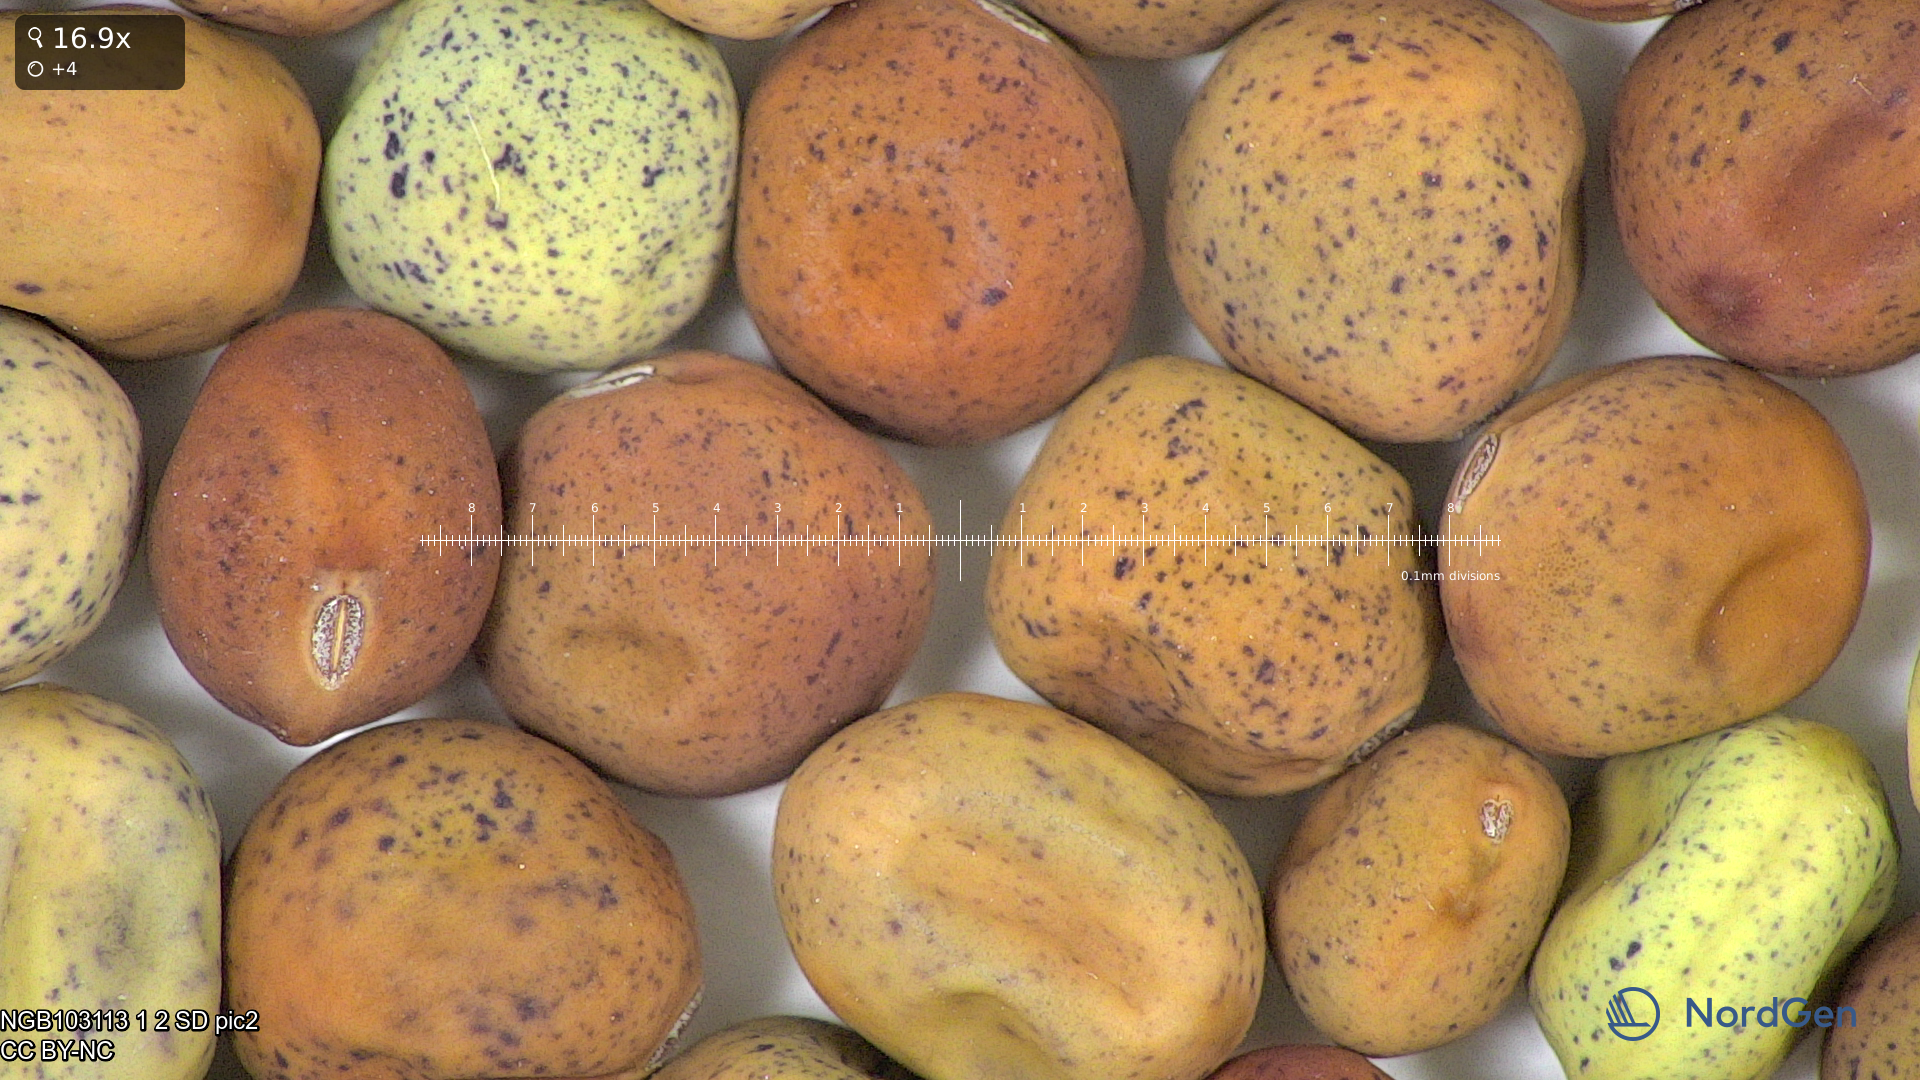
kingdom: Plantae
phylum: Tracheophyta
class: Magnoliopsida
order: Fabales
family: Fabaceae
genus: Lathyrus
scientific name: Lathyrus oleraceus
